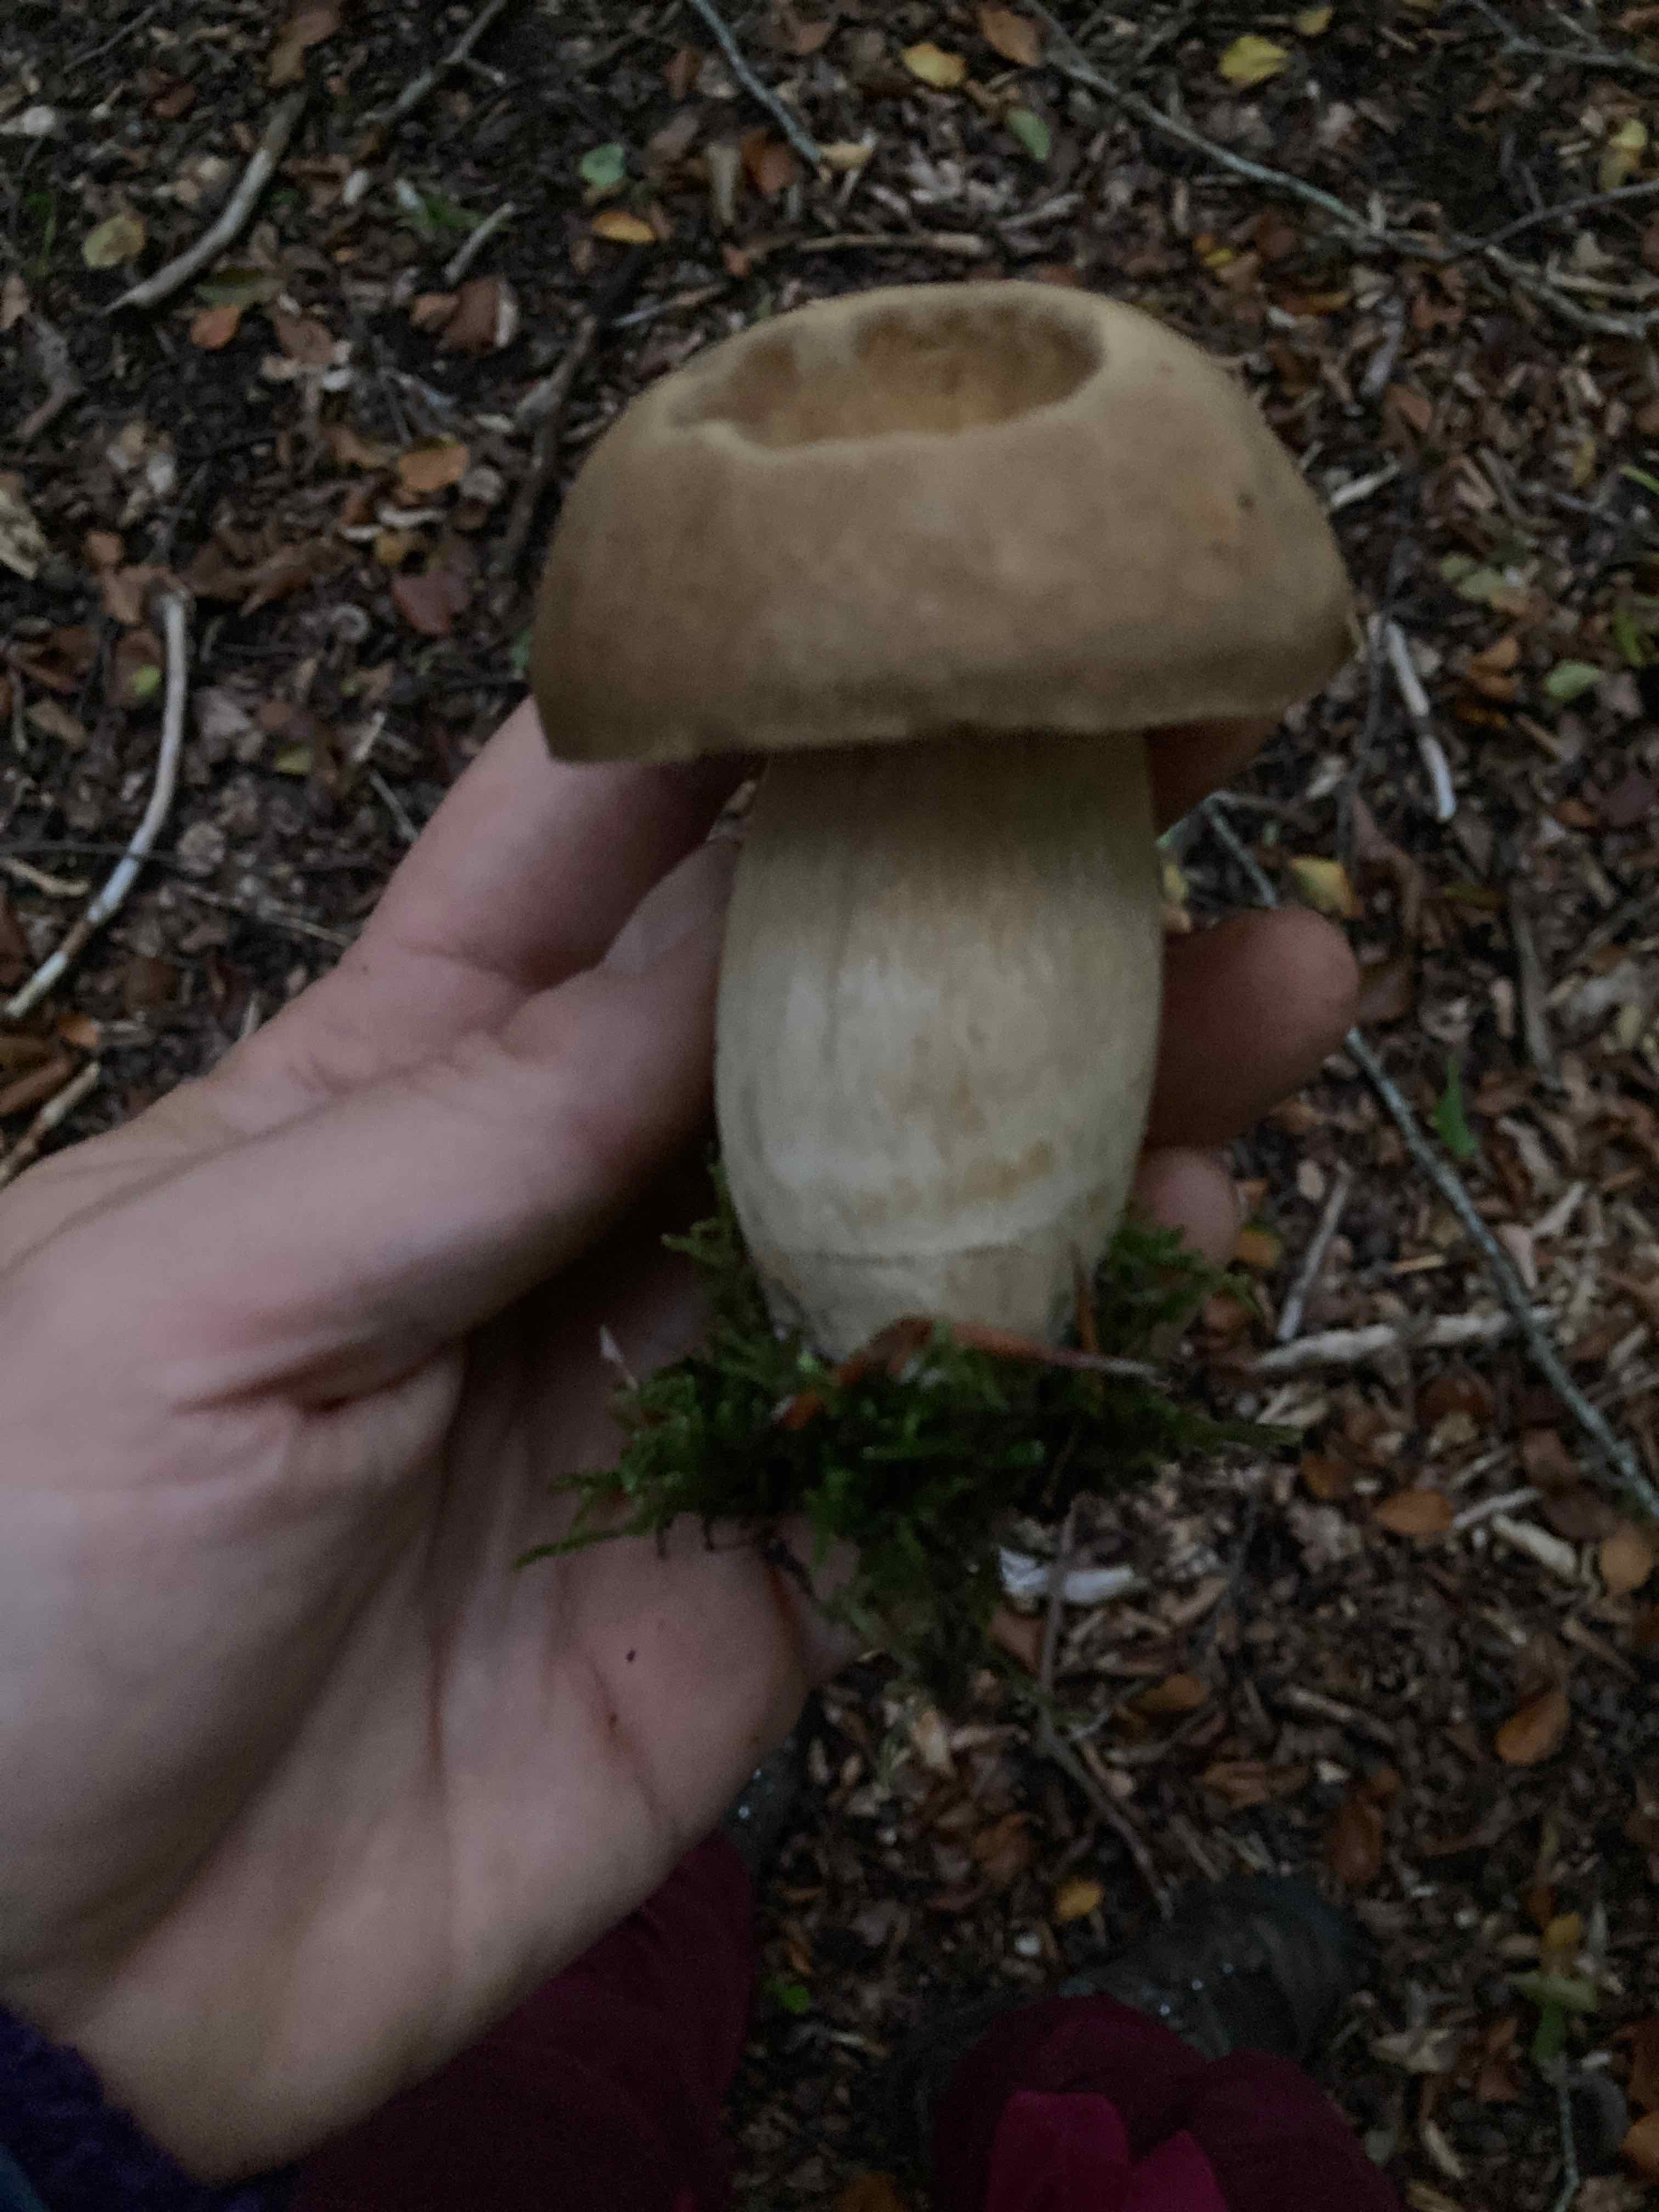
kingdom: Fungi
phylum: Basidiomycota
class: Agaricomycetes
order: Boletales
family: Boletaceae
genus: Boletus
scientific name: Boletus reticulatus
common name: sommer-rørhat
